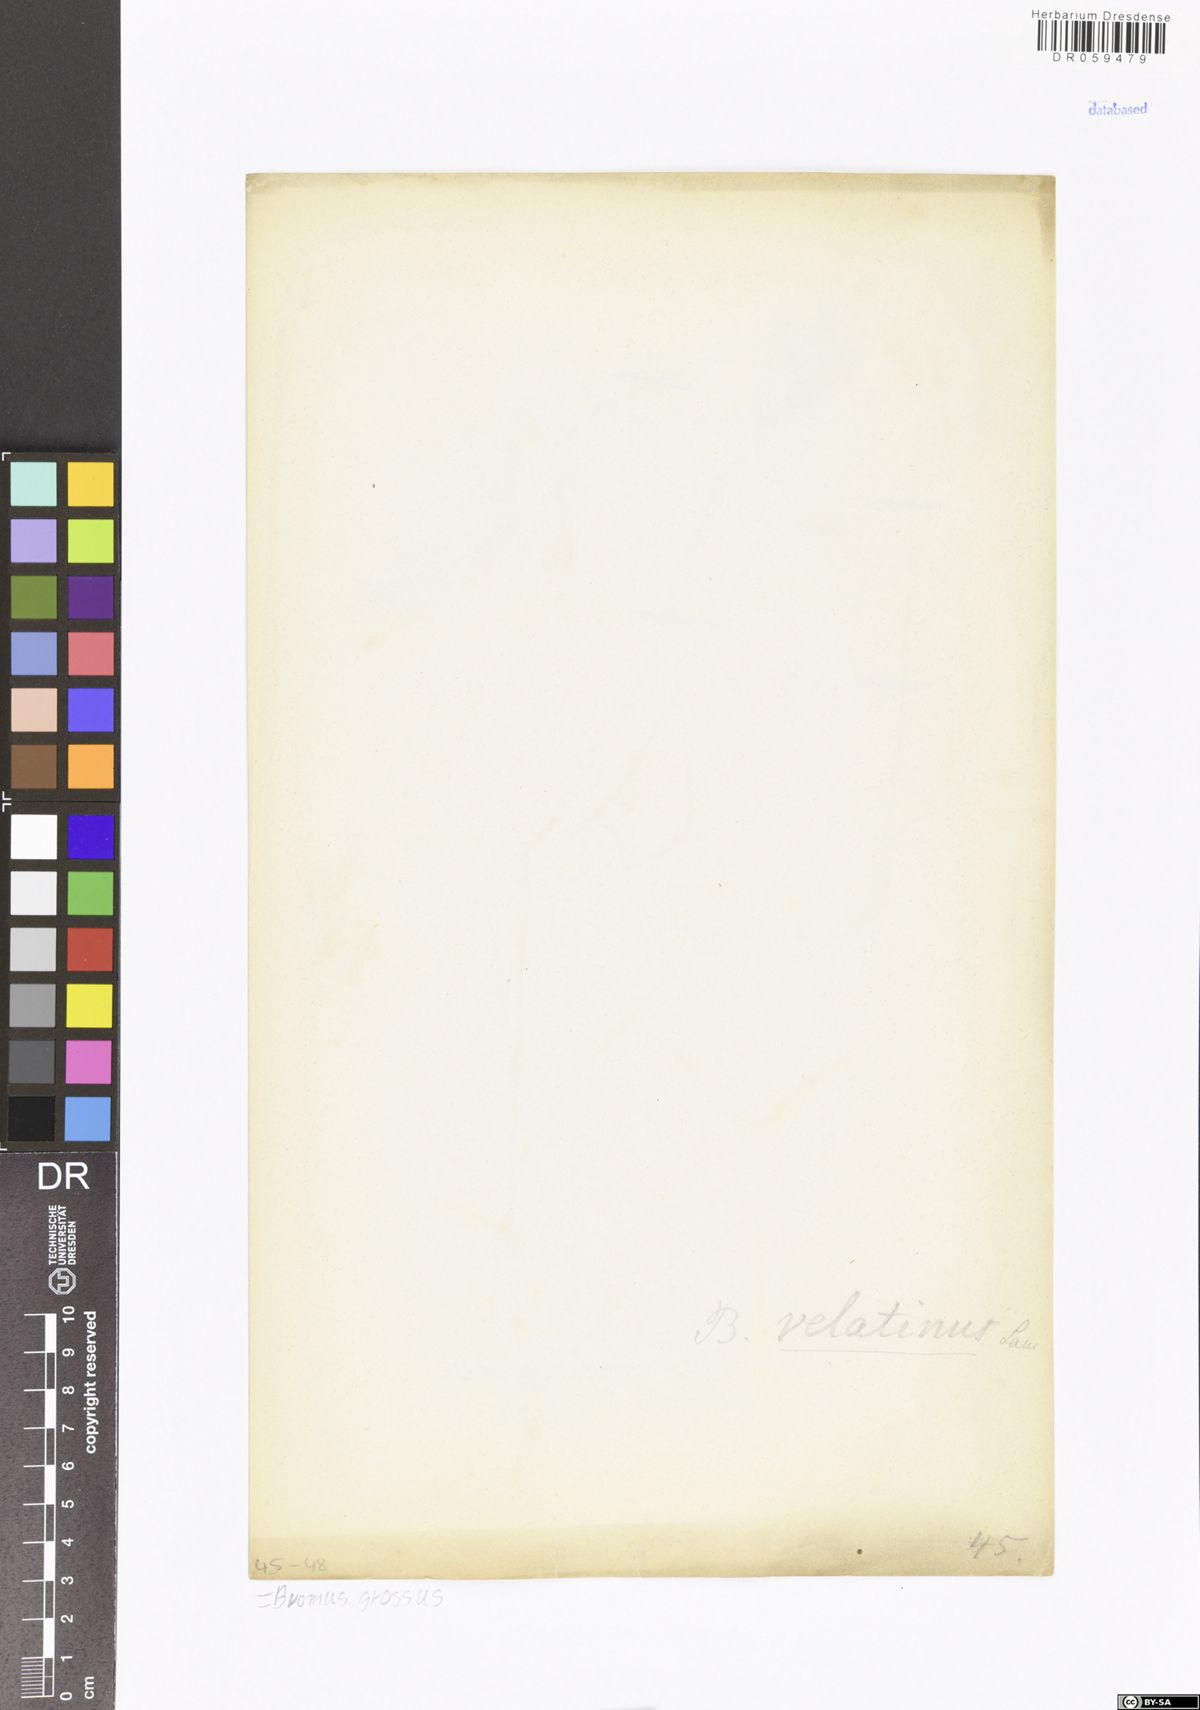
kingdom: Plantae
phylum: Tracheophyta
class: Liliopsida
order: Poales
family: Poaceae
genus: Bromus
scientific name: Bromus grossus
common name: Whiskered brome
